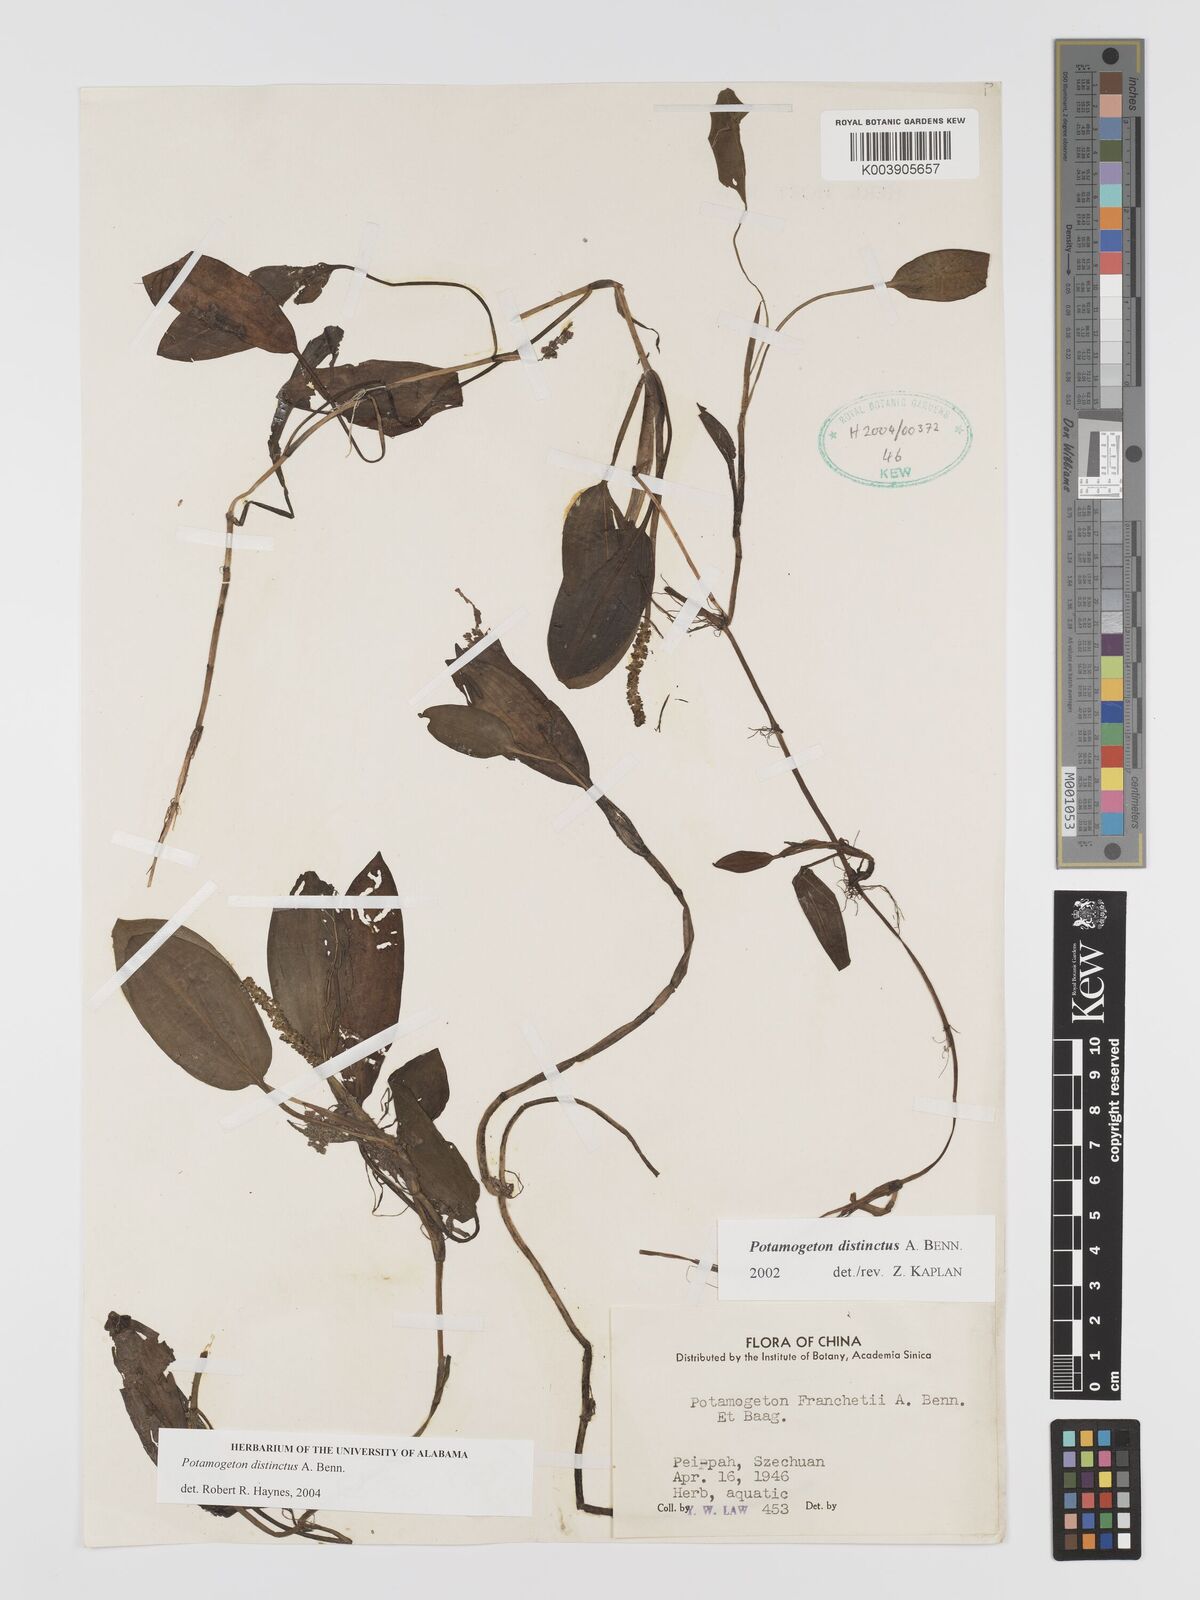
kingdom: Plantae
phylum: Tracheophyta
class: Liliopsida
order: Alismatales
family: Potamogetonaceae
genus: Potamogeton
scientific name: Potamogeton distinctus
